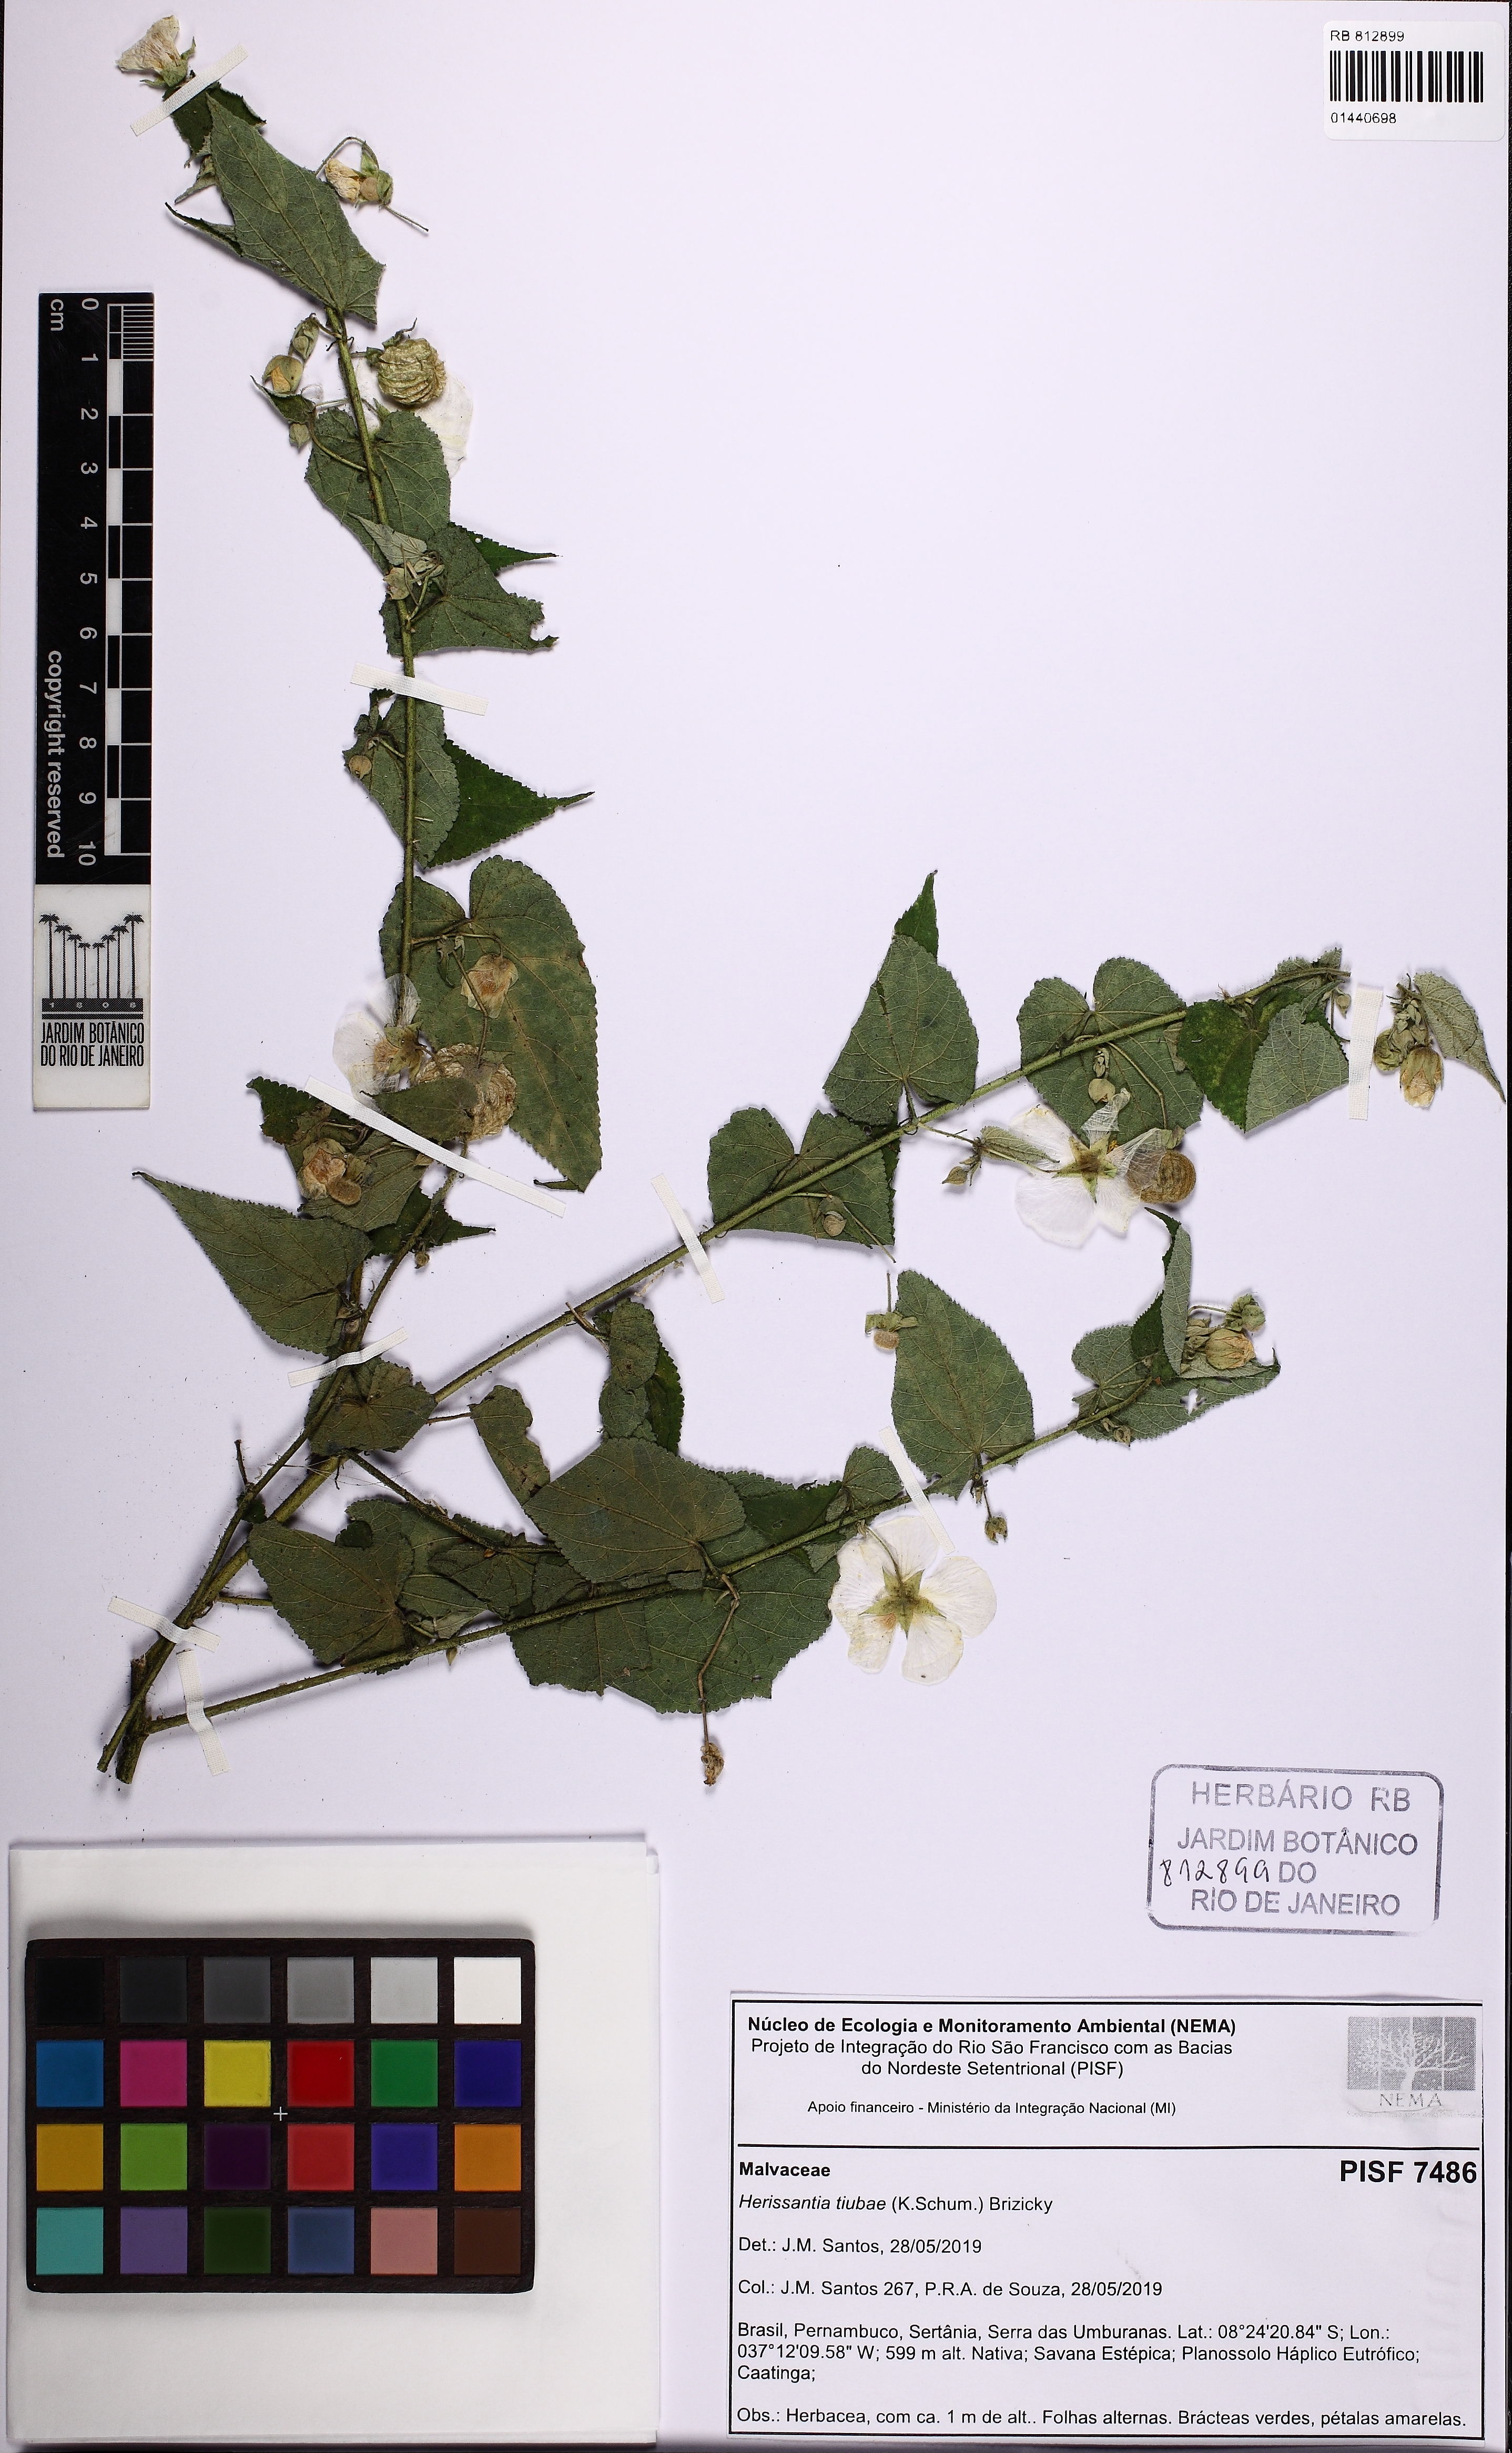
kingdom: Plantae
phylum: Tracheophyta
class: Magnoliopsida
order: Malvales
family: Malvaceae
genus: Herissantia
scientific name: Herissantia tiubae
